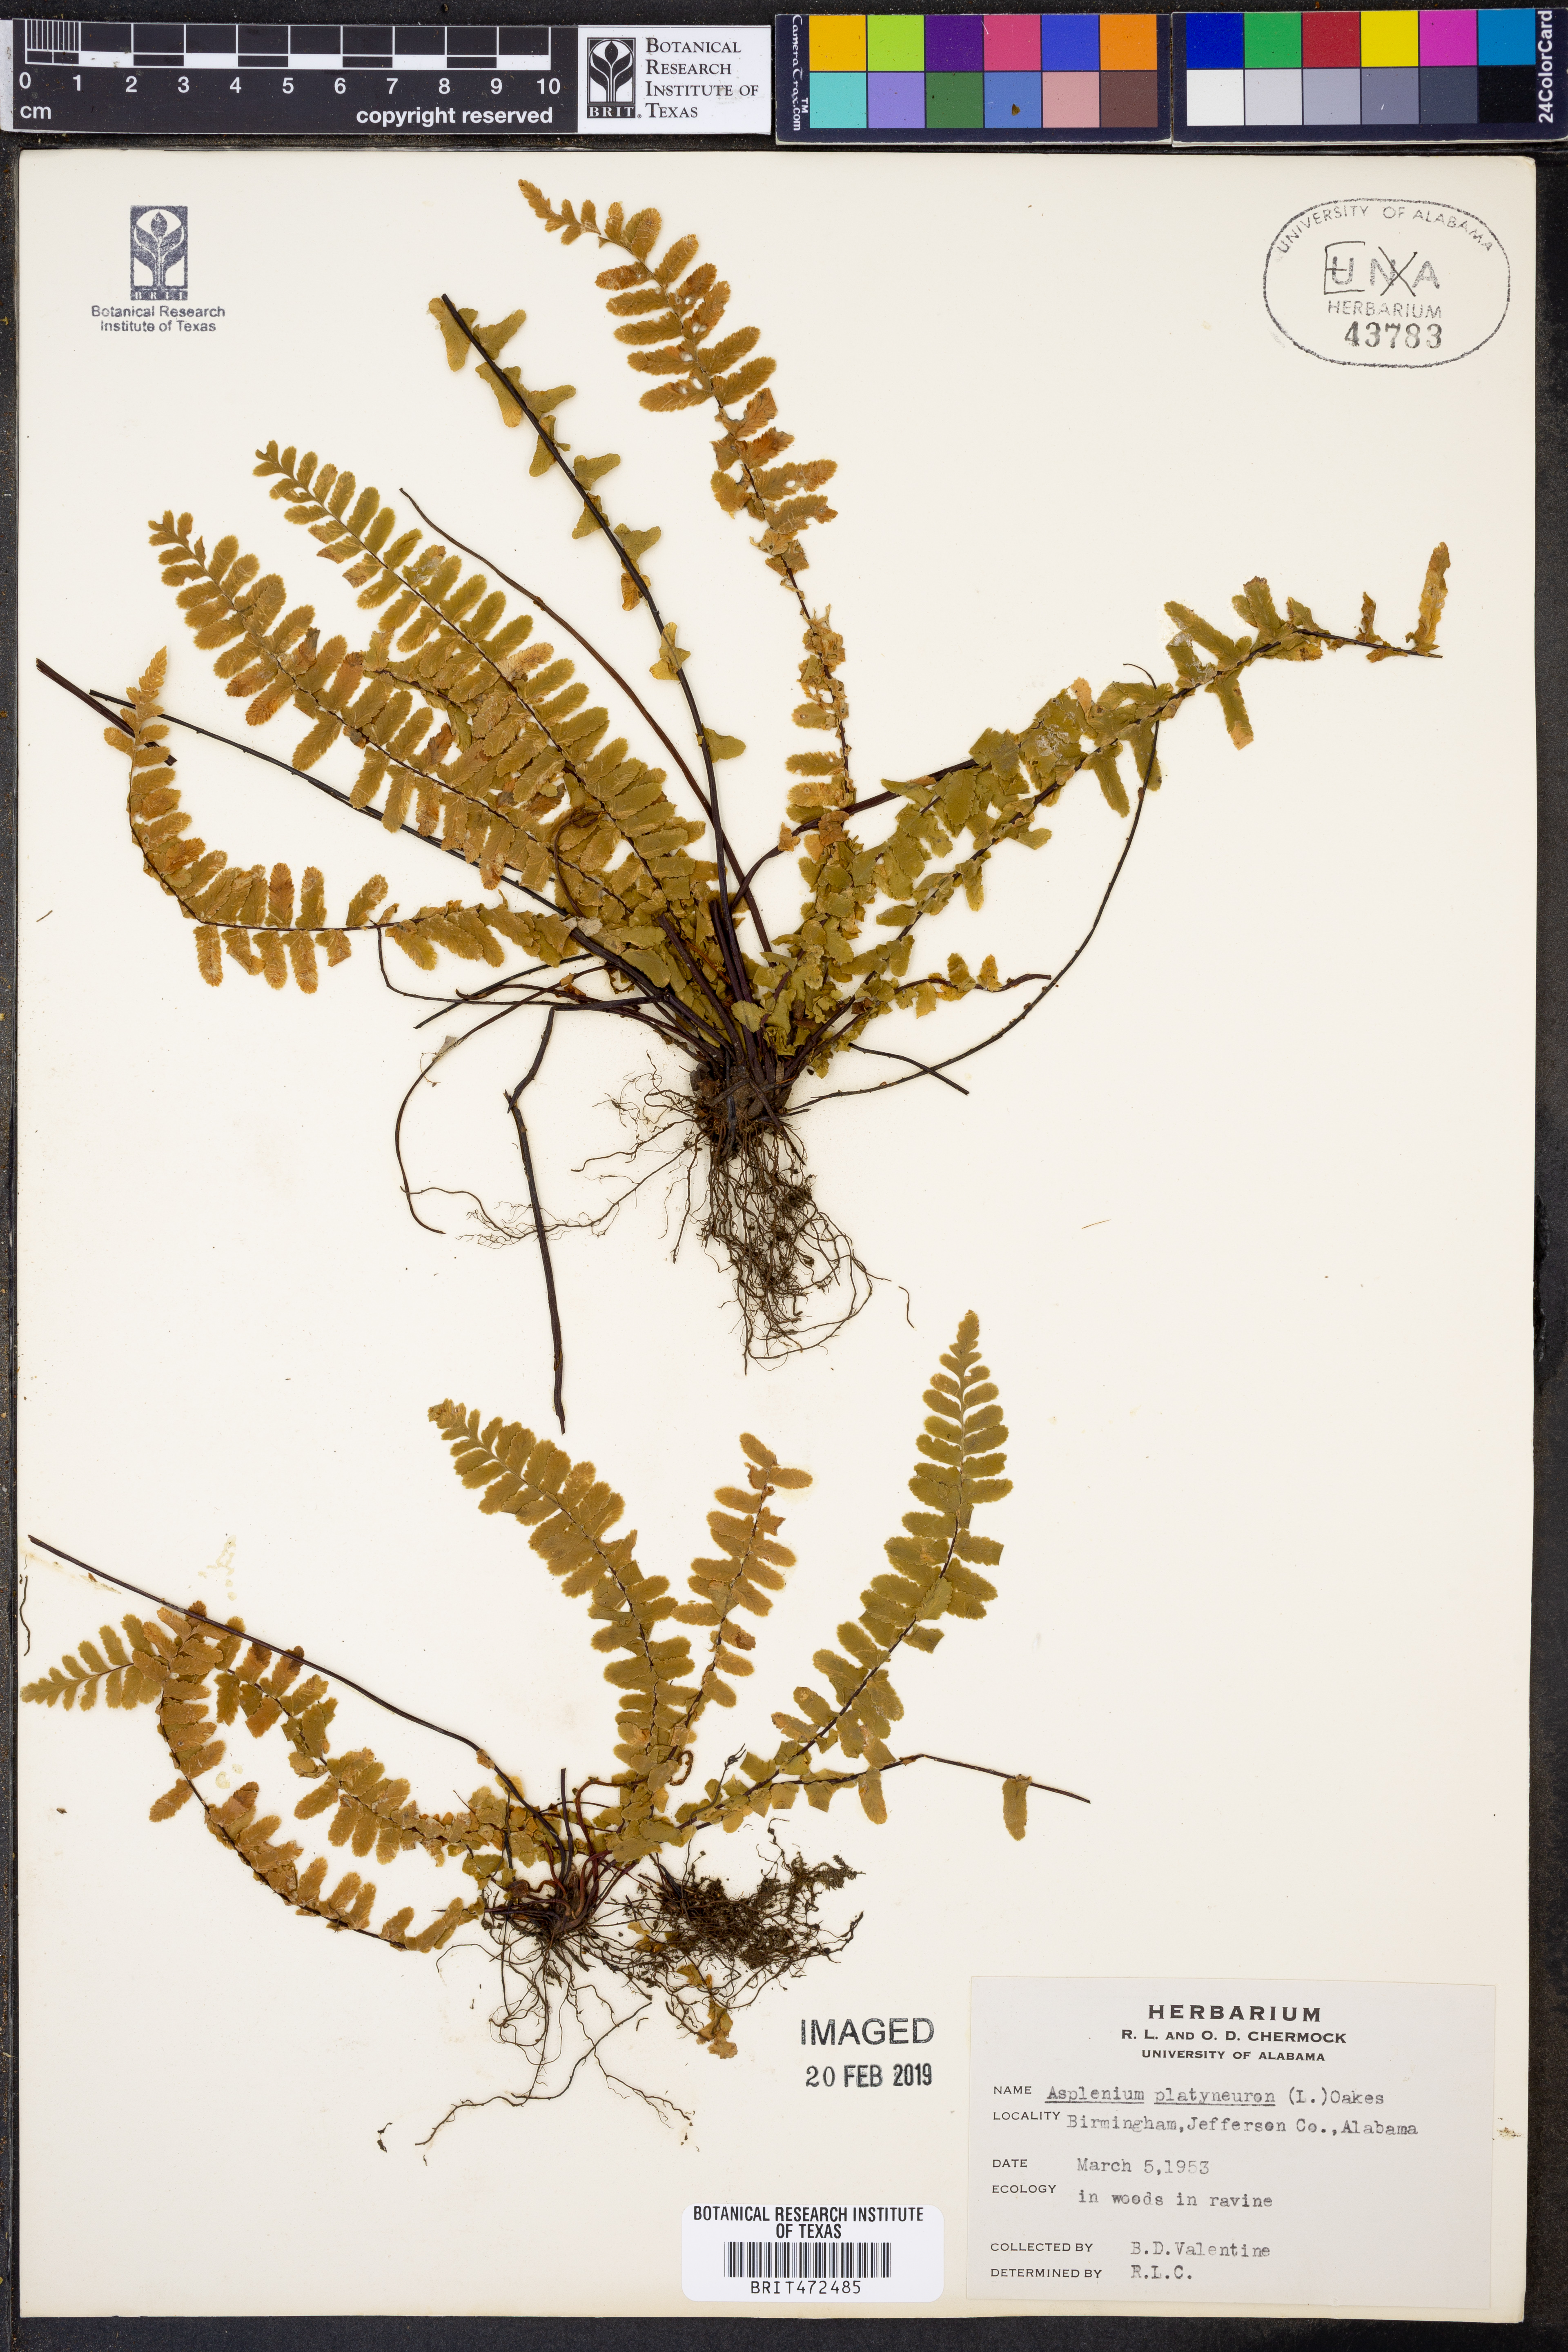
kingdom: Plantae
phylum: Tracheophyta
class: Polypodiopsida
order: Polypodiales
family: Aspleniaceae
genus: Asplenium
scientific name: Asplenium platyneuron
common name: Ebony spleenwort
